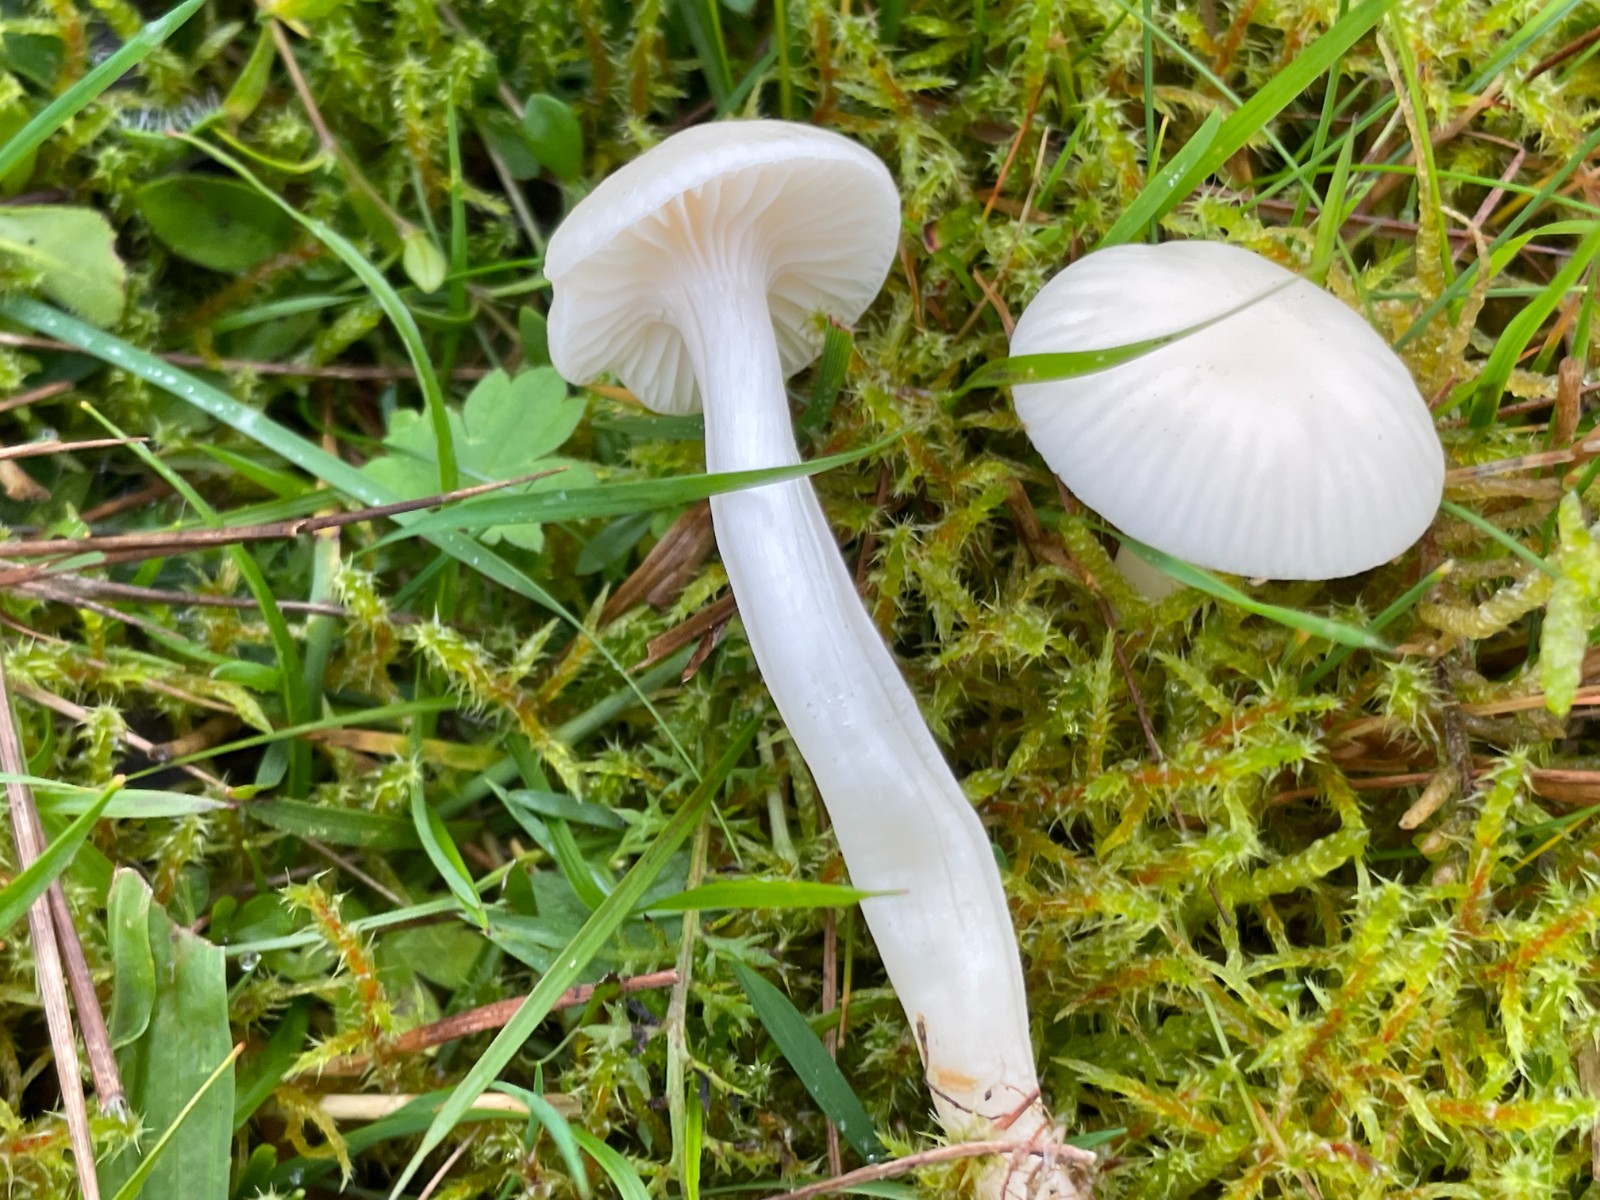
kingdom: Fungi
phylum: Basidiomycota
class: Agaricomycetes
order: Agaricales
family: Hygrophoraceae
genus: Cuphophyllus
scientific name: Cuphophyllus virgineus
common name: snehvid vokshat
